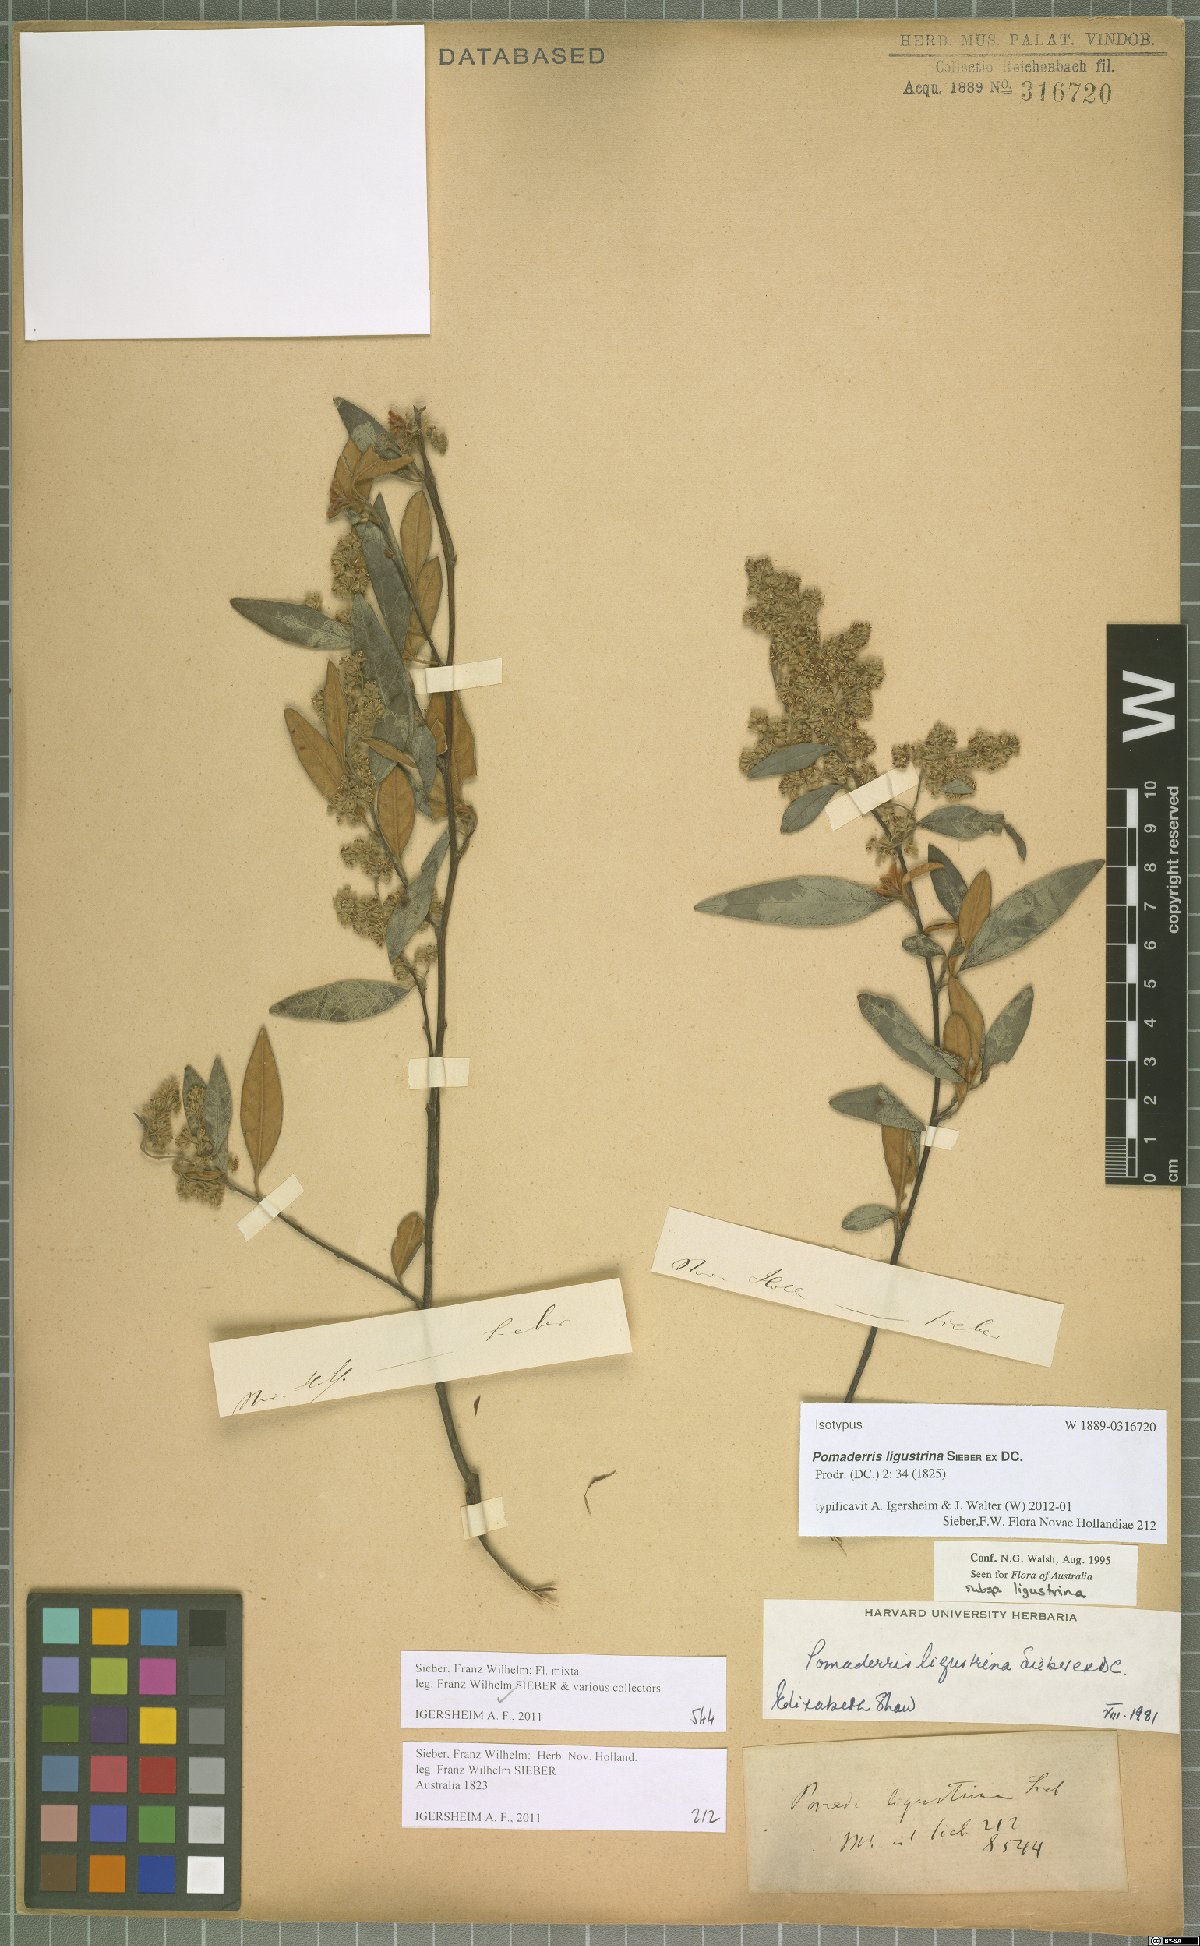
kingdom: Plantae
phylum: Tracheophyta
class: Magnoliopsida
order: Rosales
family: Rhamnaceae
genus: Pomaderris
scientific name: Pomaderris ligustrina
